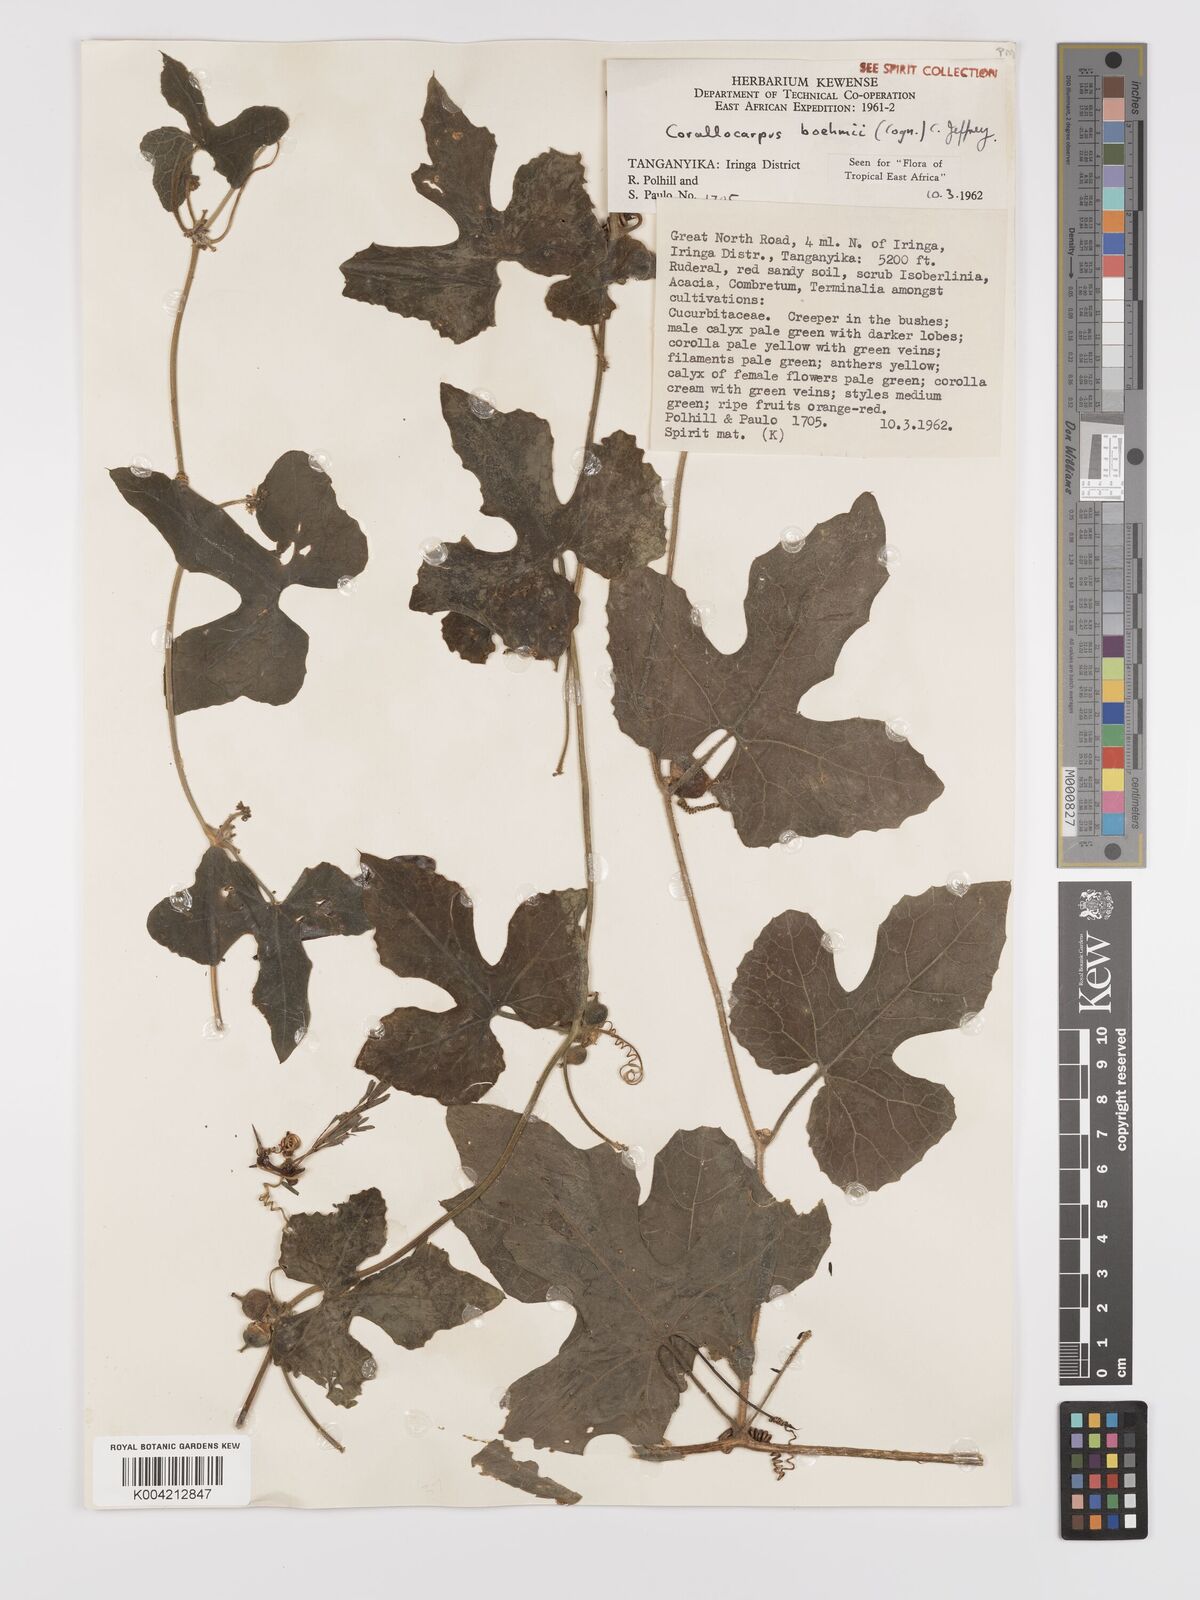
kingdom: Plantae
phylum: Tracheophyta
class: Magnoliopsida
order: Cucurbitales
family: Cucurbitaceae
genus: Corallocarpus
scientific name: Corallocarpus boehmii
